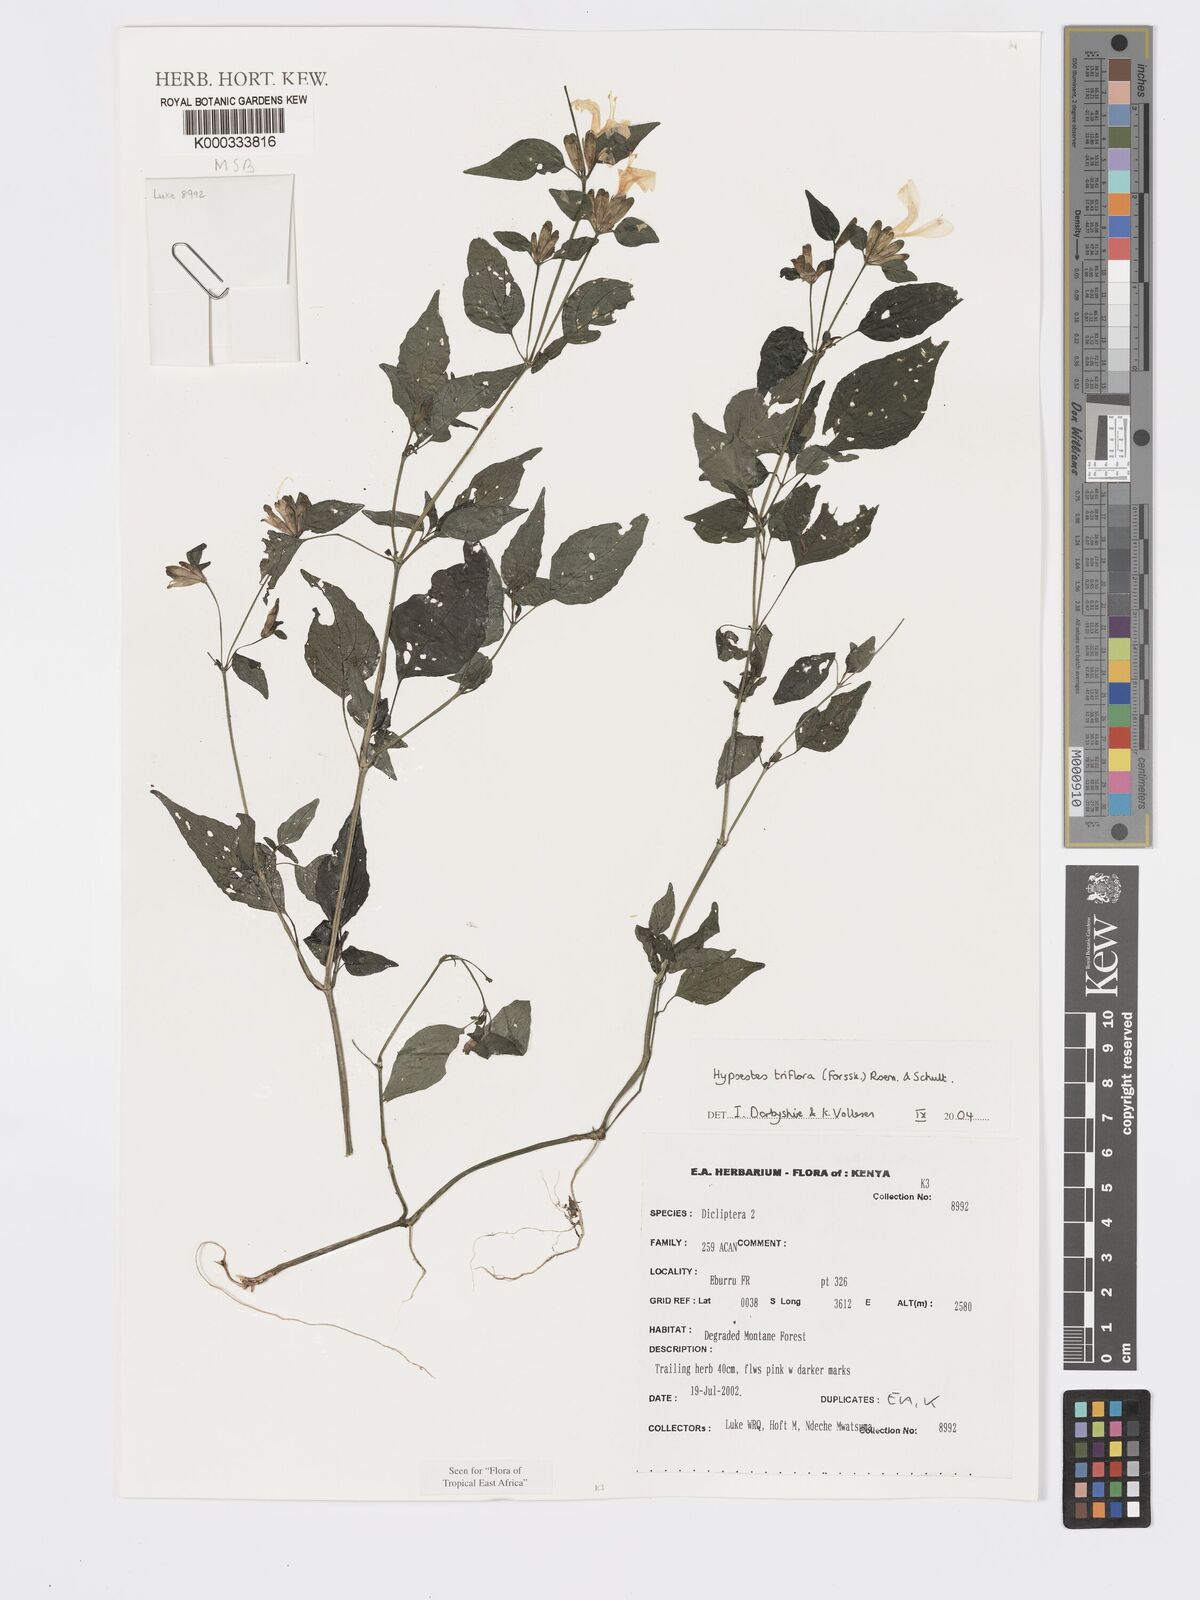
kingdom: Plantae
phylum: Tracheophyta
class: Magnoliopsida
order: Lamiales
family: Acanthaceae
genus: Hypoestes
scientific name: Hypoestes triflora
